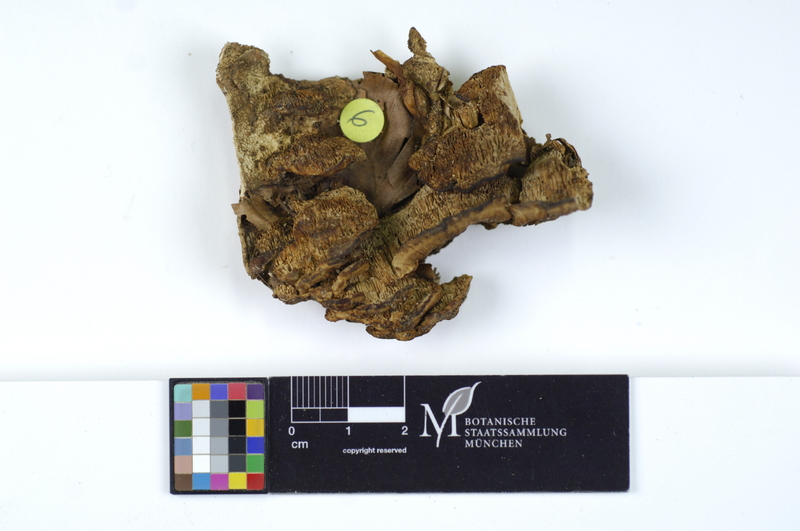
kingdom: Plantae
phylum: Tracheophyta
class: Magnoliopsida
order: Fagales
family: Fagaceae
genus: Fagus
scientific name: Fagus sylvatica
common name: Beech
